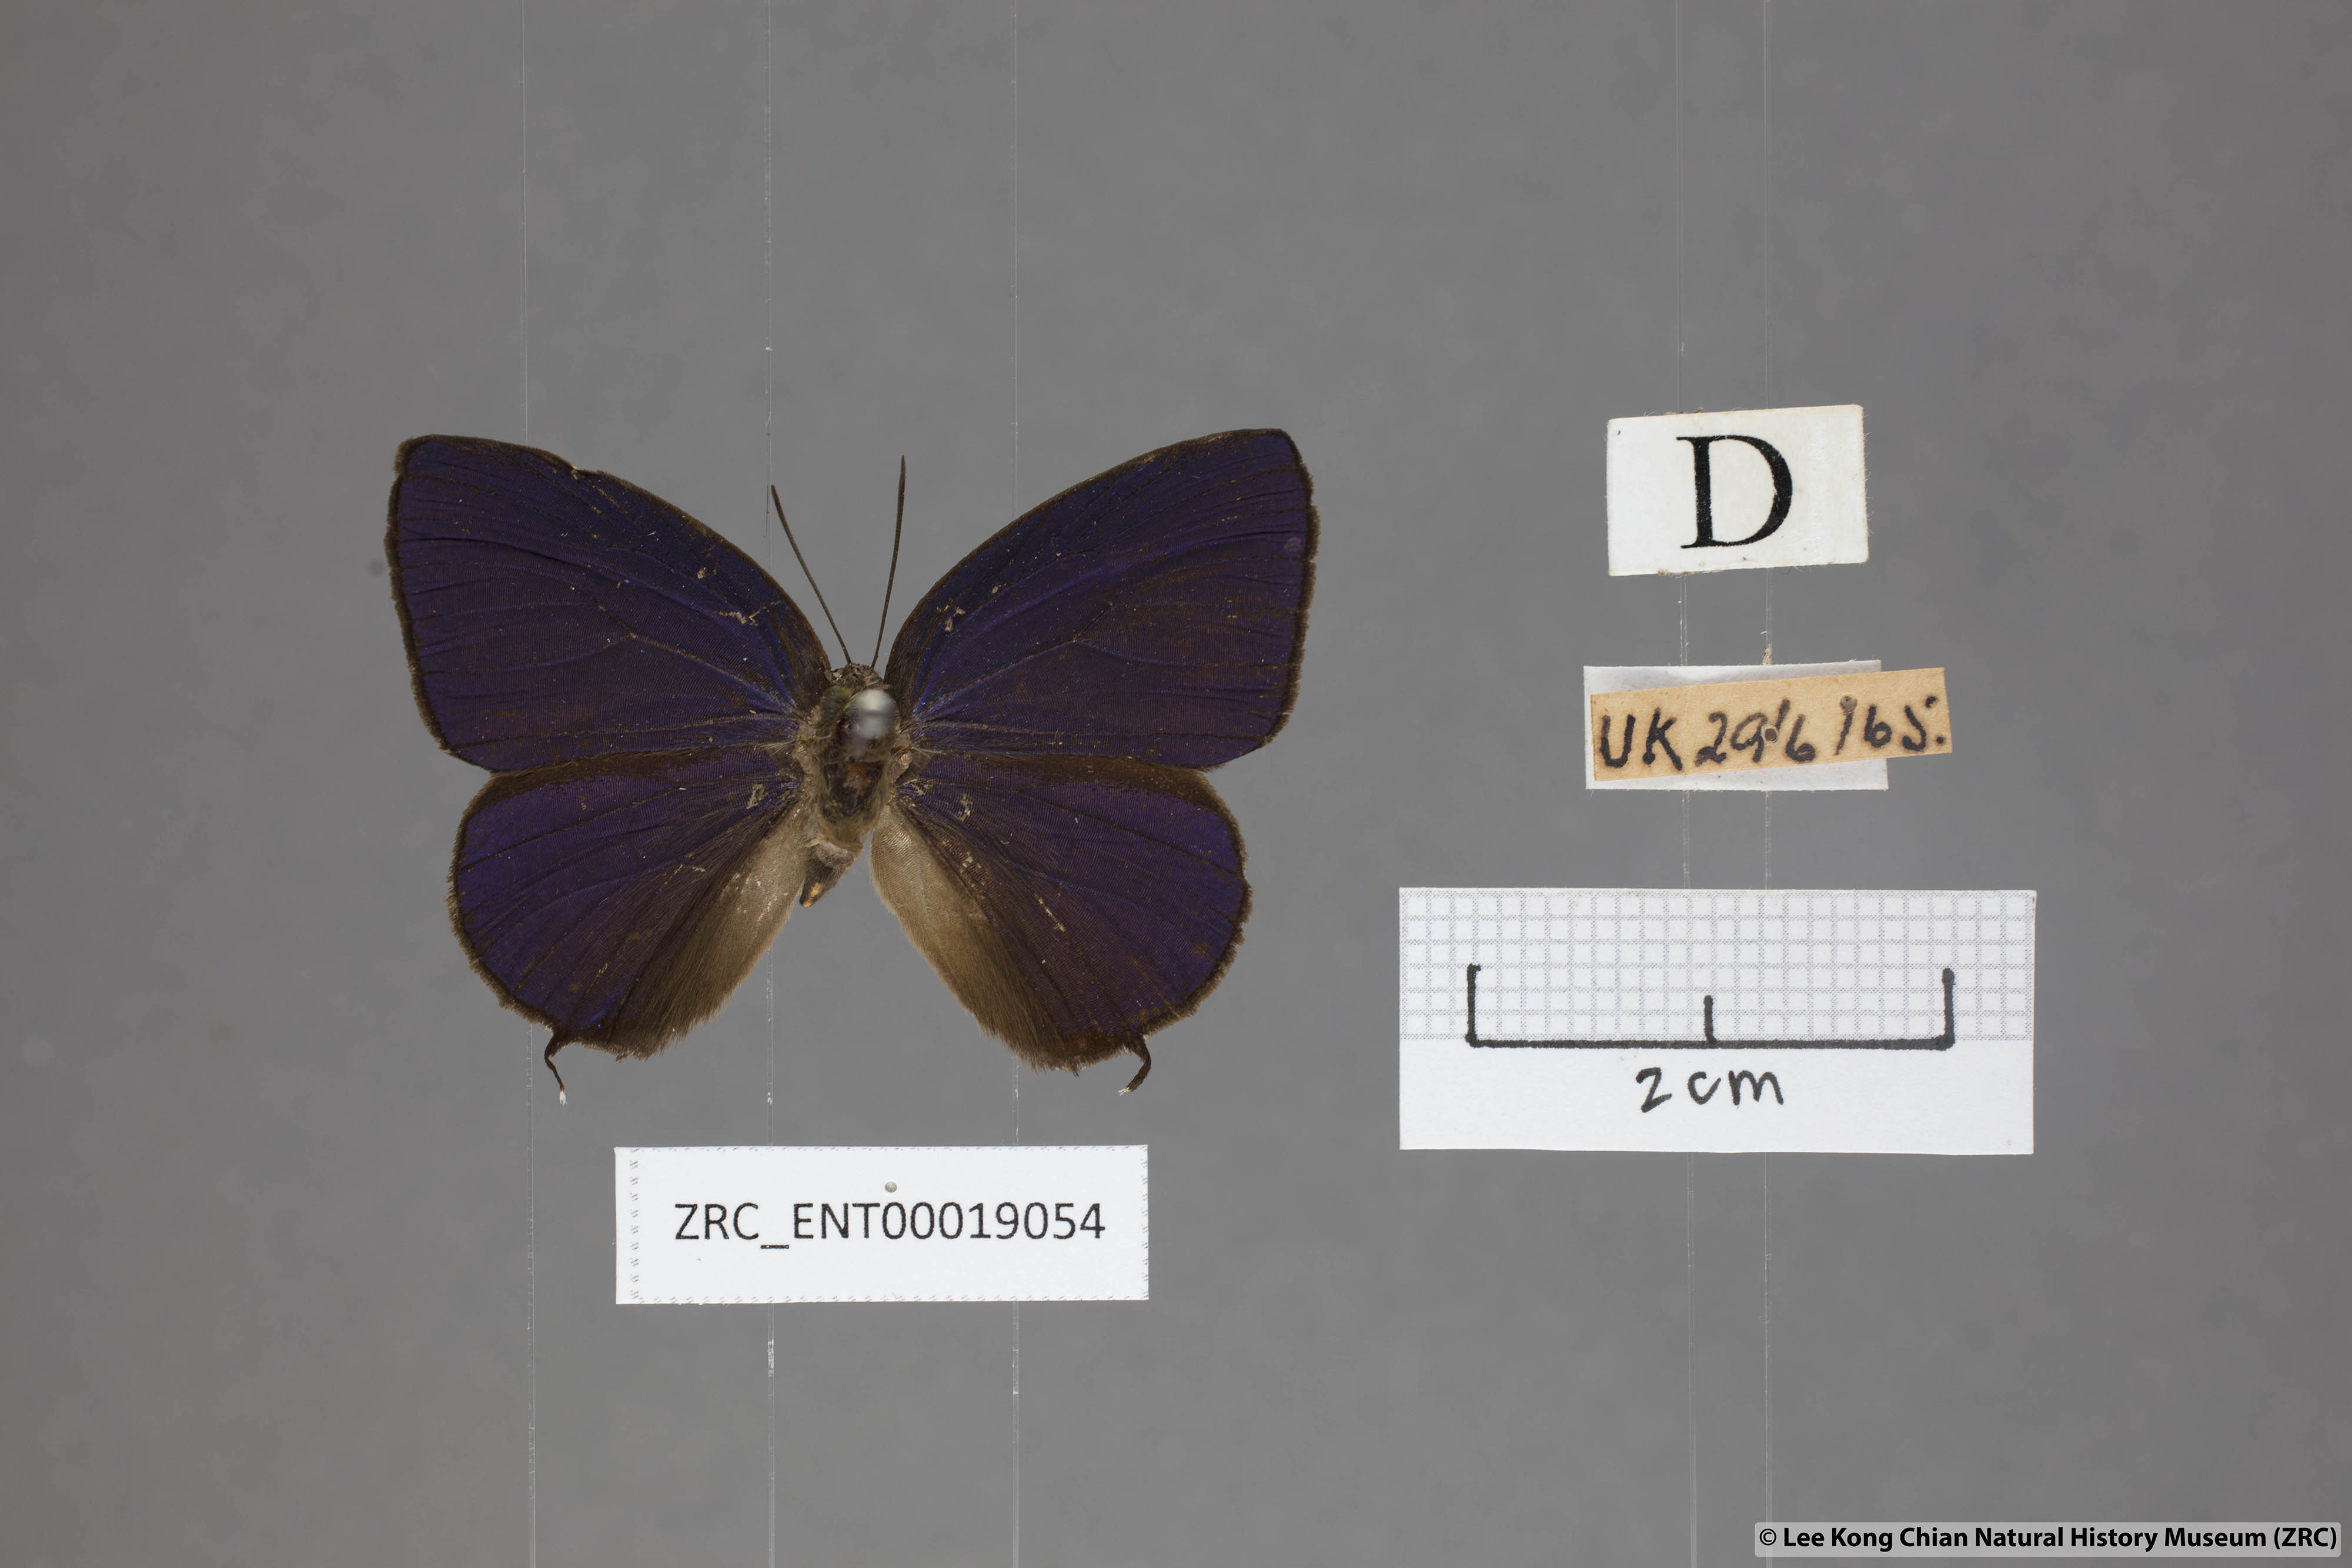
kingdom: Animalia
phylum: Arthropoda
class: Insecta
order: Lepidoptera
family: Lycaenidae
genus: Arhopala
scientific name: Arhopala agrata
